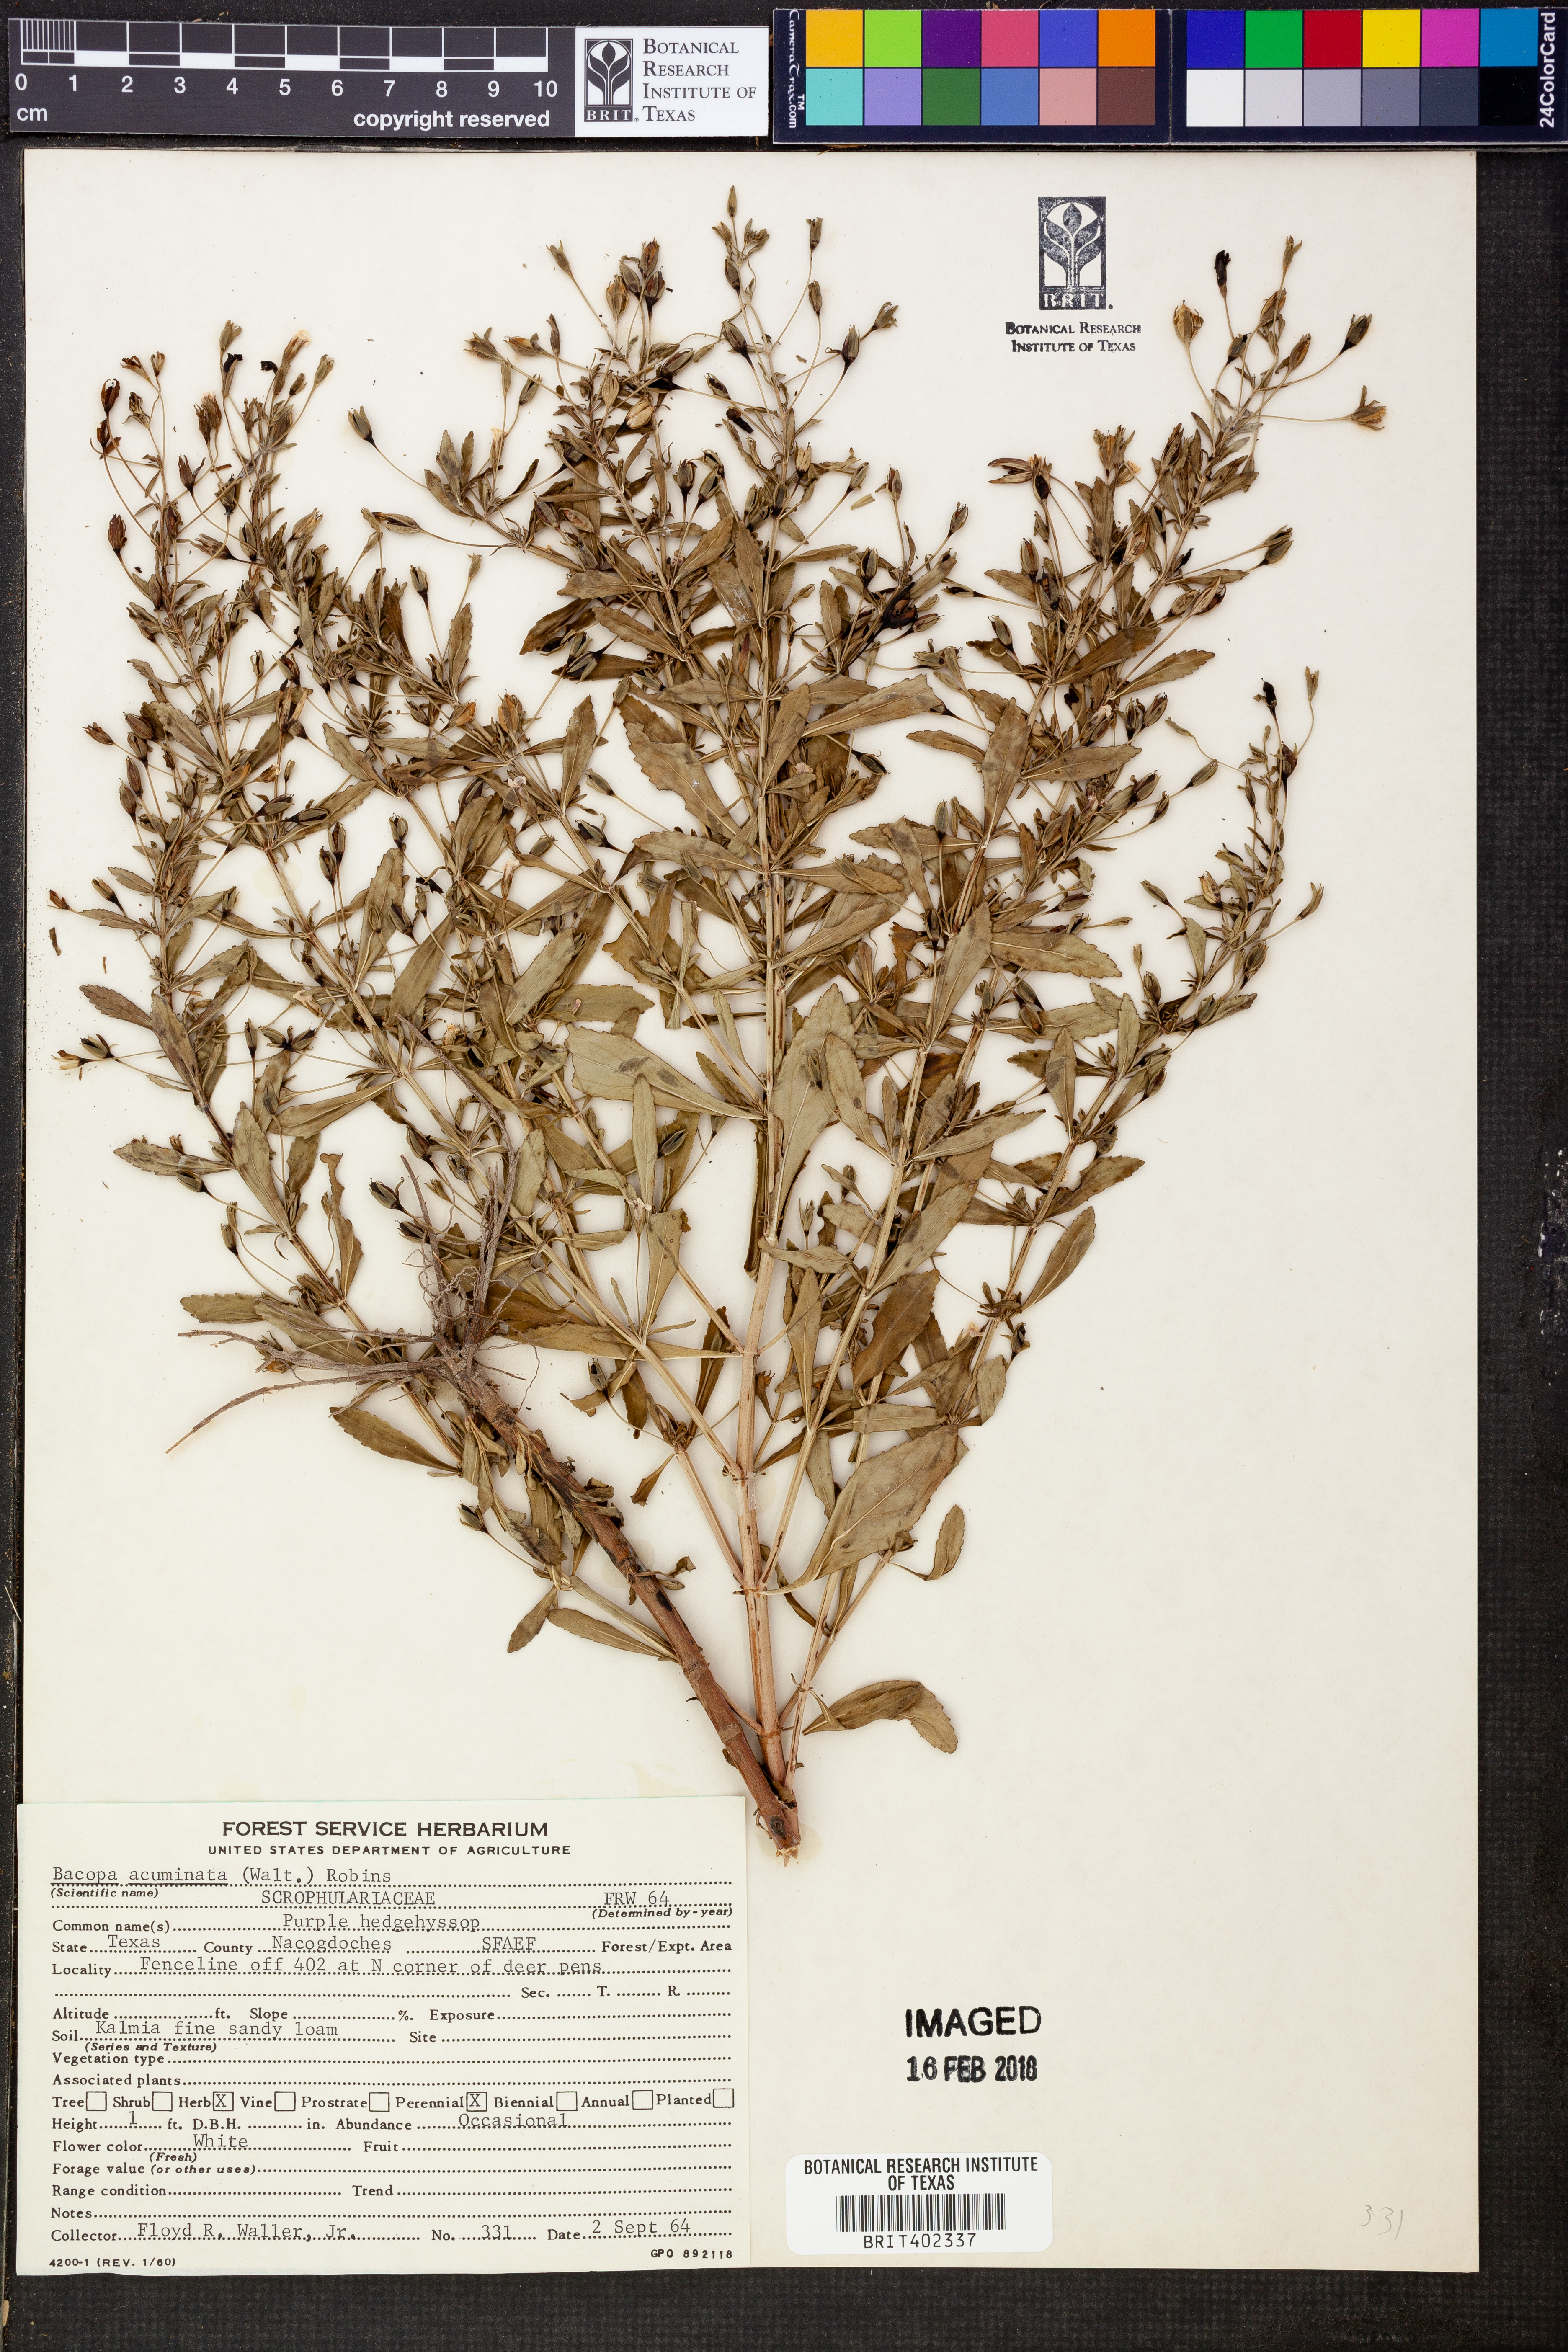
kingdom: Plantae
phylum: Tracheophyta
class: Magnoliopsida
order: Lamiales
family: Plantaginaceae
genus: Mecardonia
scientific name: Mecardonia acuminata
